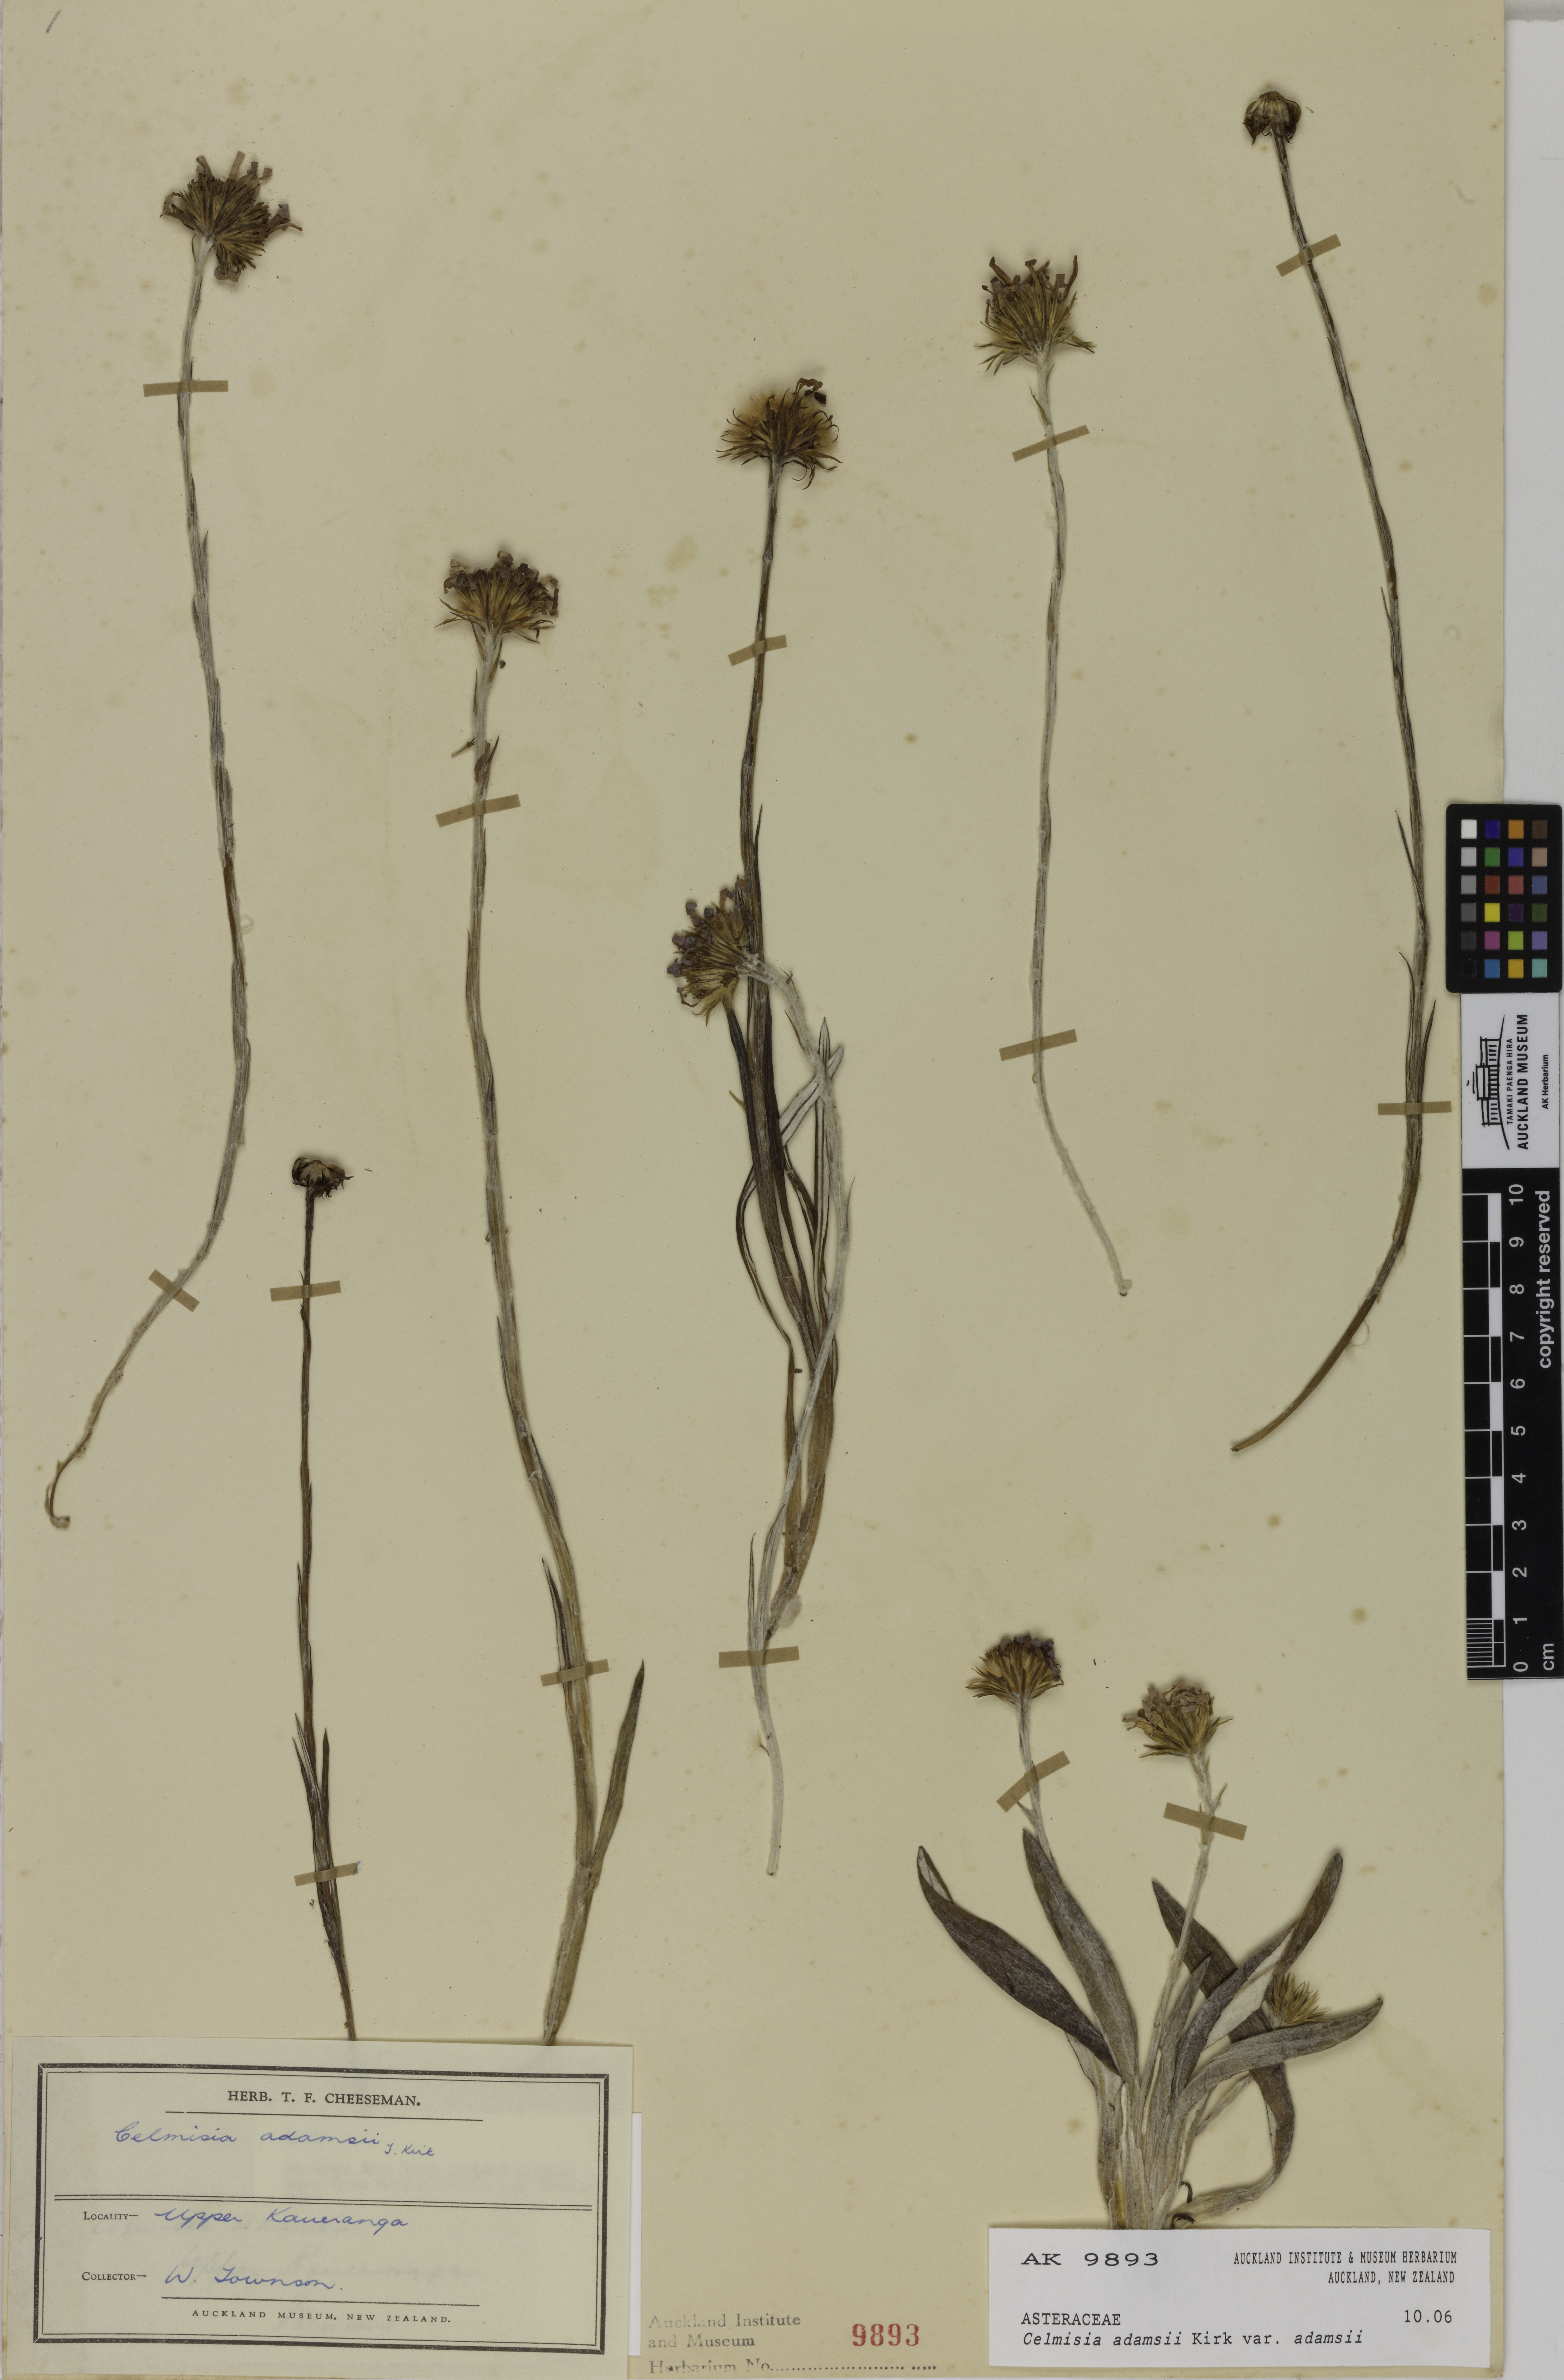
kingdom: Plantae
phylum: Tracheophyta
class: Magnoliopsida
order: Asterales
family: Asteraceae
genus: Celmisia
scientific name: Celmisia adamsii
